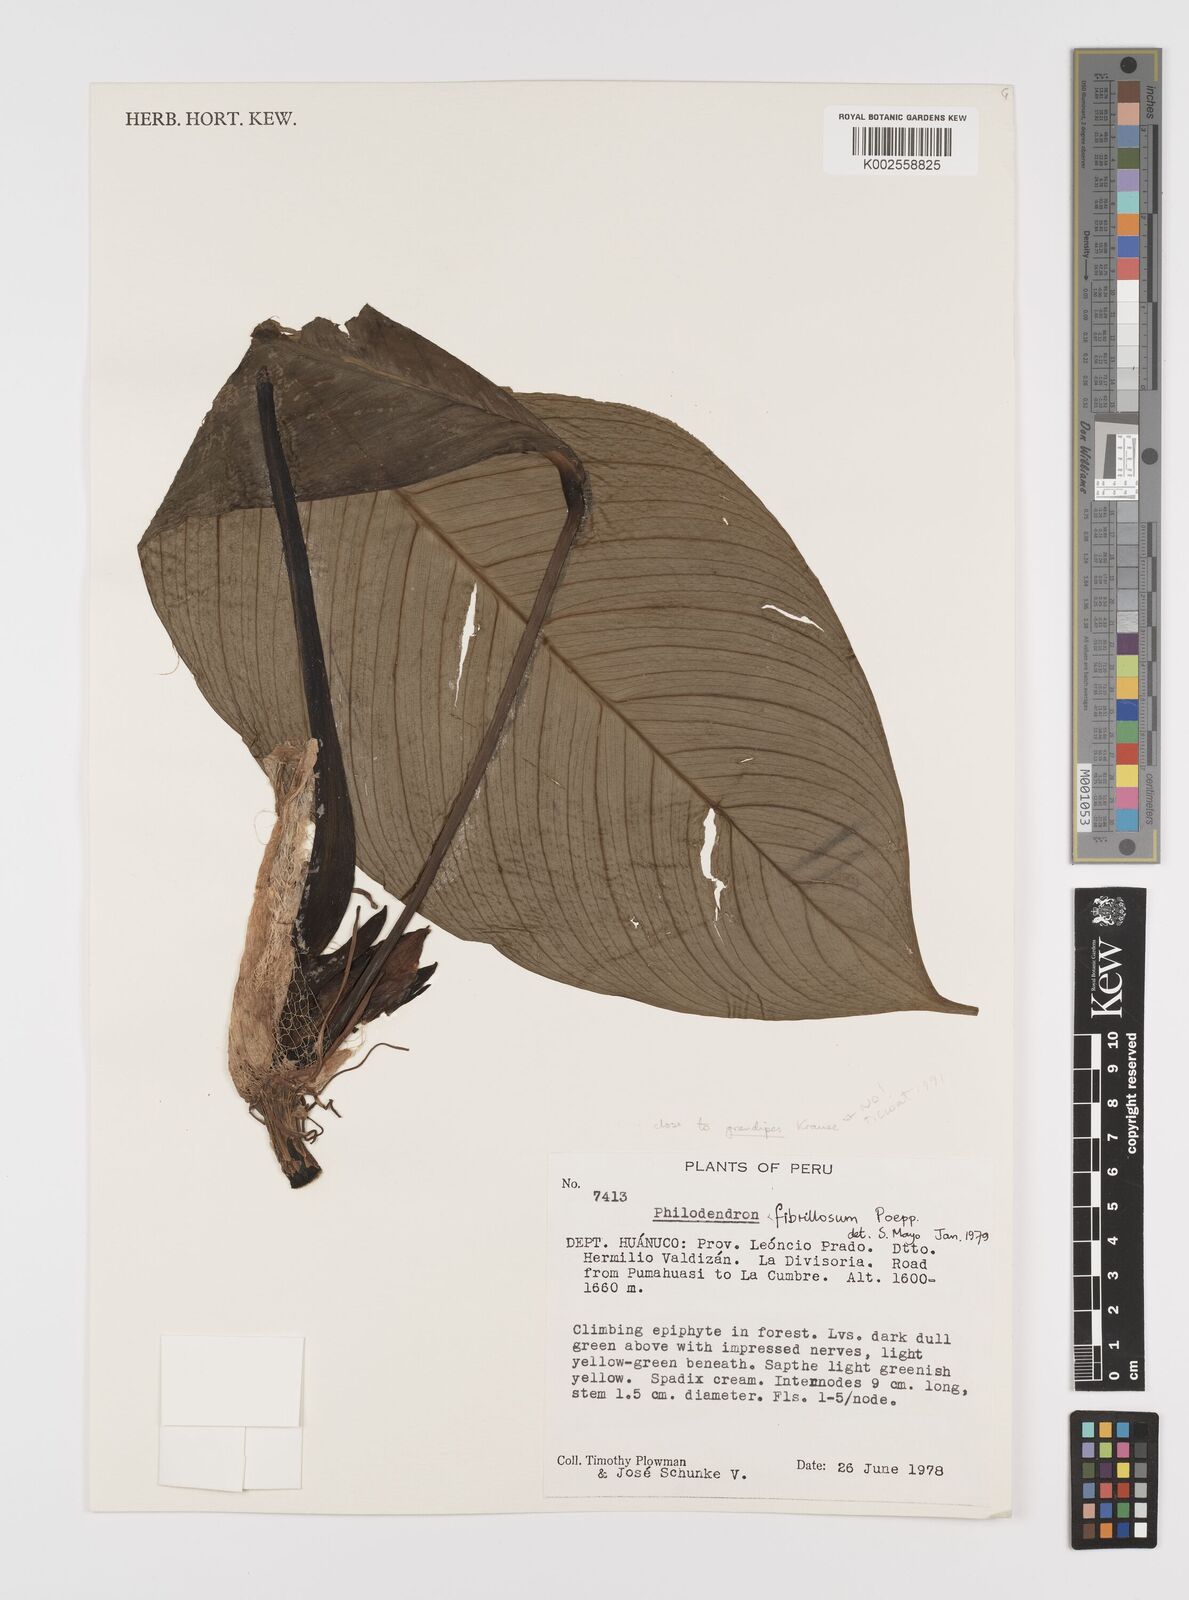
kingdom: Plantae
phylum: Tracheophyta
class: Liliopsida
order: Alismatales
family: Araceae
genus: Philodendron
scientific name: Philodendron fibrillosum
